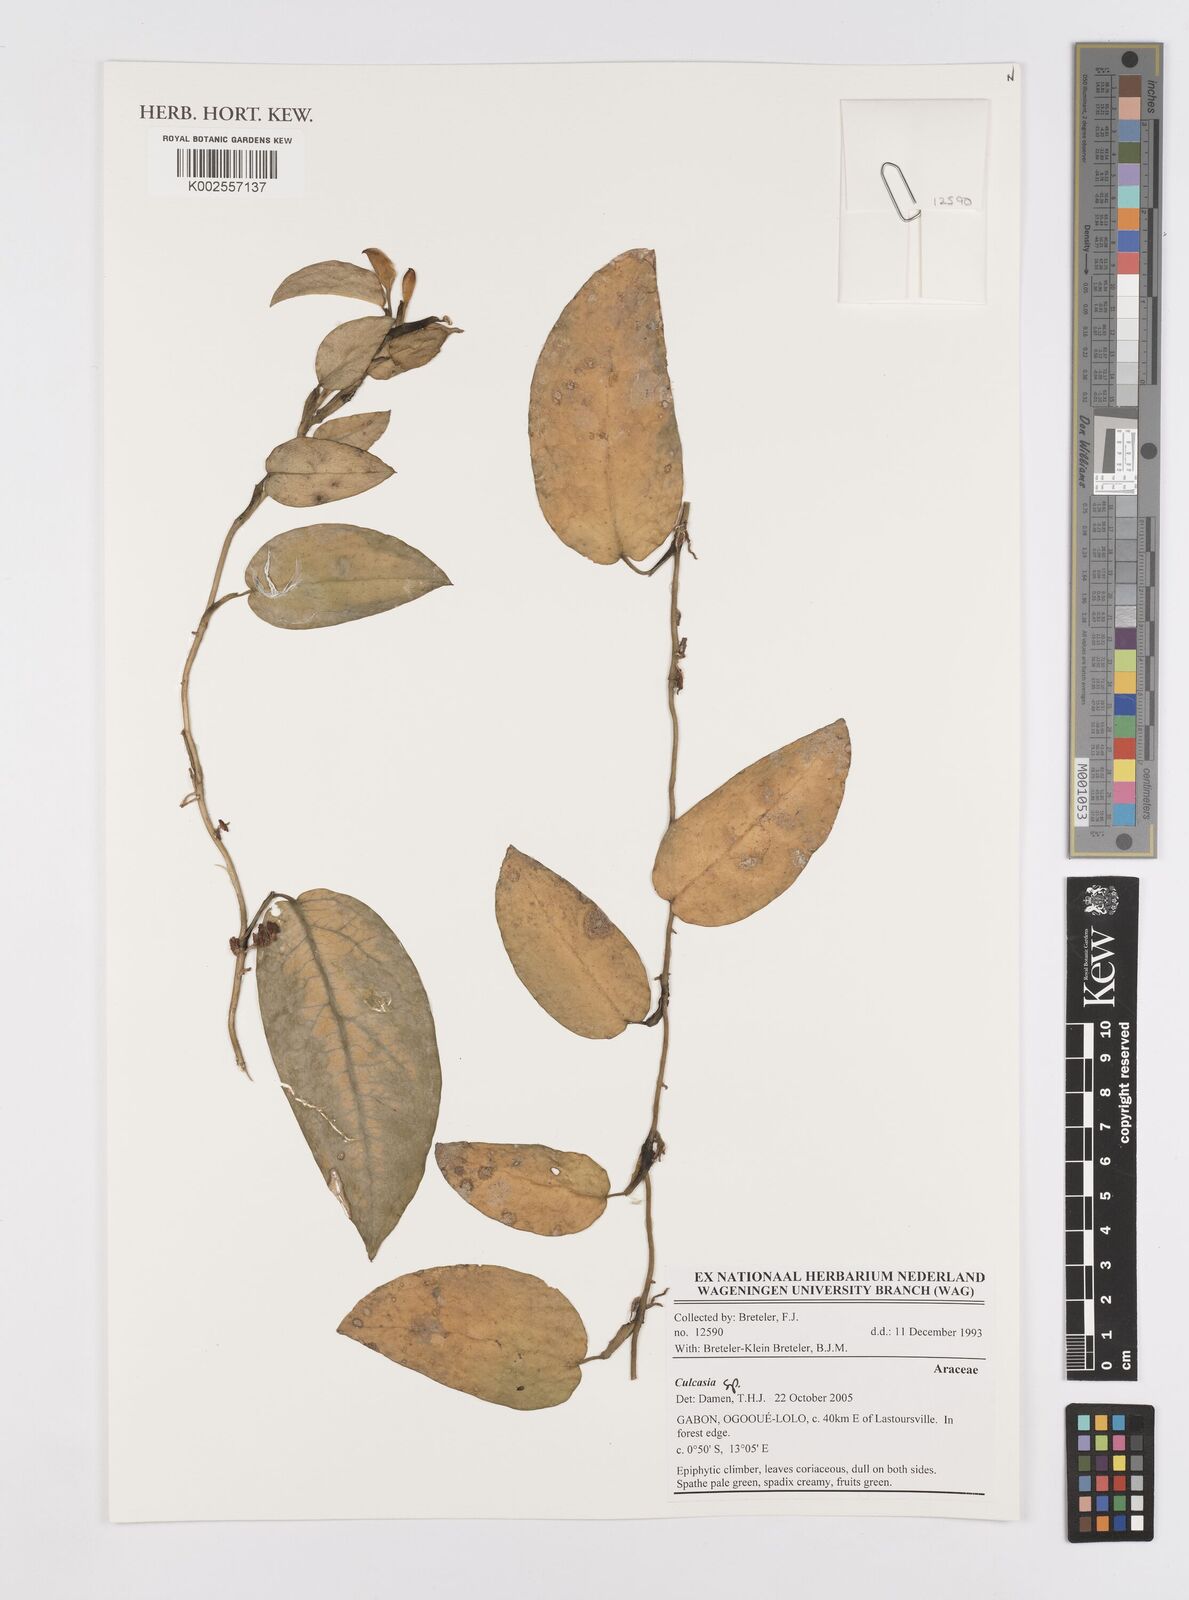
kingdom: Plantae
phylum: Tracheophyta
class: Liliopsida
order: Alismatales
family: Araceae
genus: Culcasia
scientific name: Culcasia parviflora
